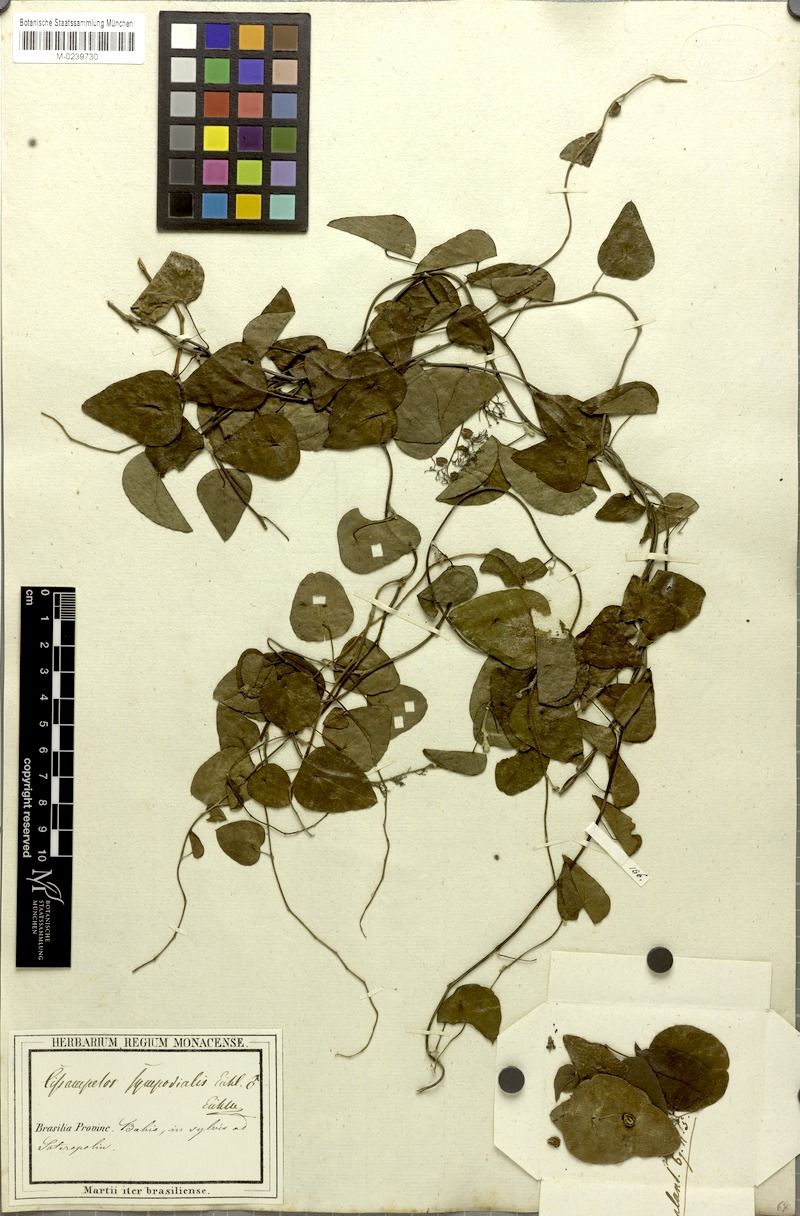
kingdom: Plantae
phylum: Tracheophyta
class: Magnoliopsida
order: Ranunculales
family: Menispermaceae
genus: Cissampelos
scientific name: Cissampelos sympodialis
